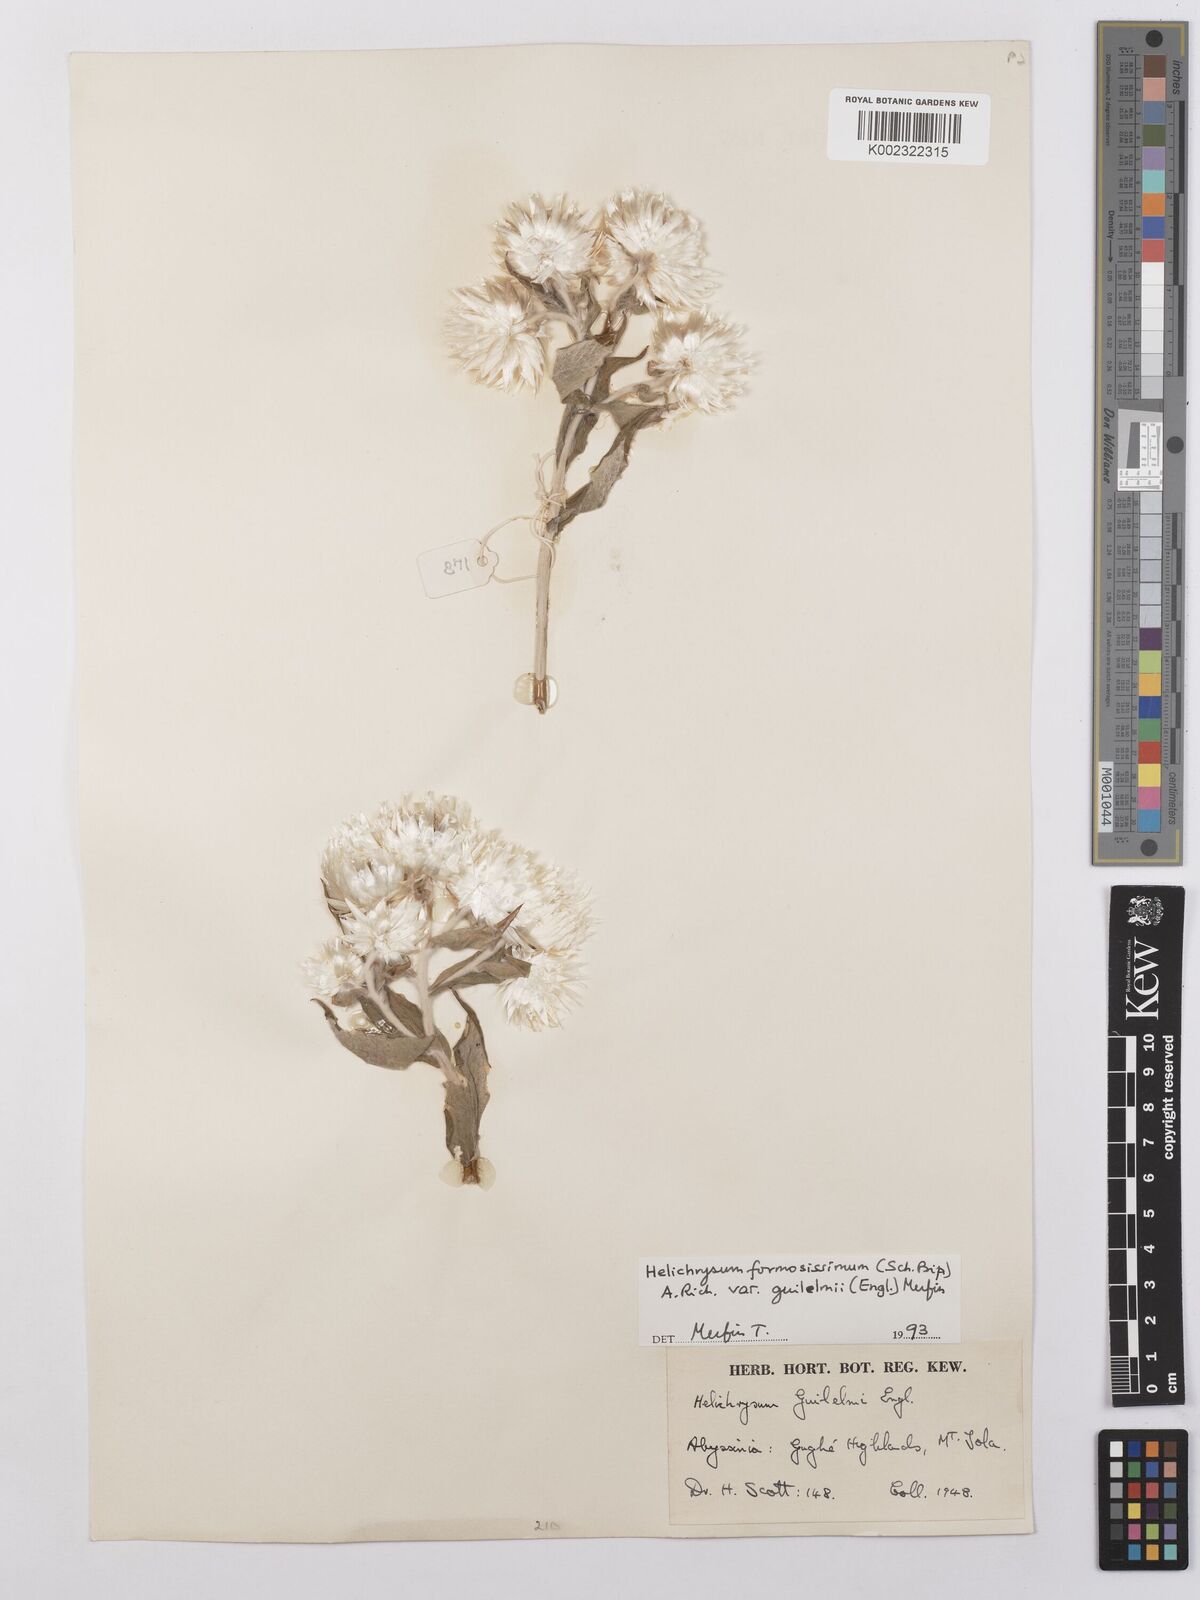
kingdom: Plantae
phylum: Tracheophyta
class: Magnoliopsida
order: Asterales
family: Asteraceae
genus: Helichrysum
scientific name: Helichrysum formosissimum
